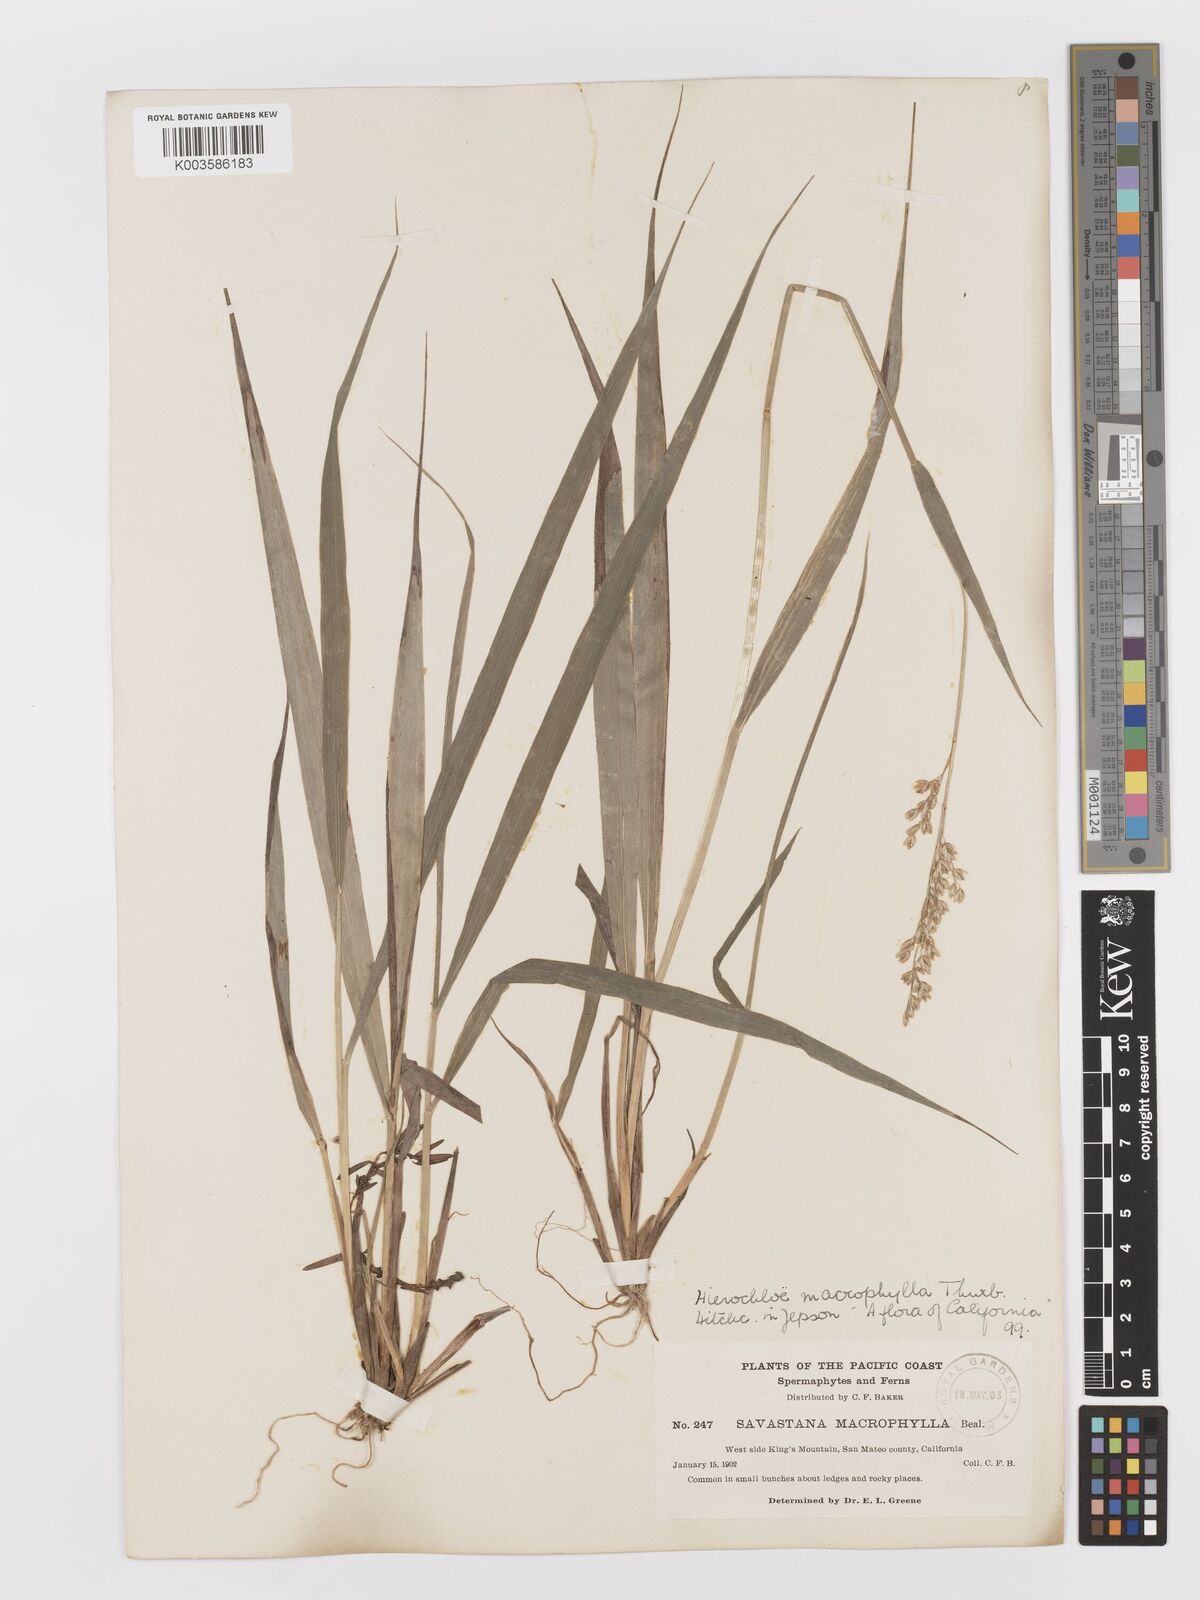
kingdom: Plantae
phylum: Tracheophyta
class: Liliopsida
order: Poales
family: Poaceae
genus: Anthoxanthum
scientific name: Anthoxanthum occidentale
